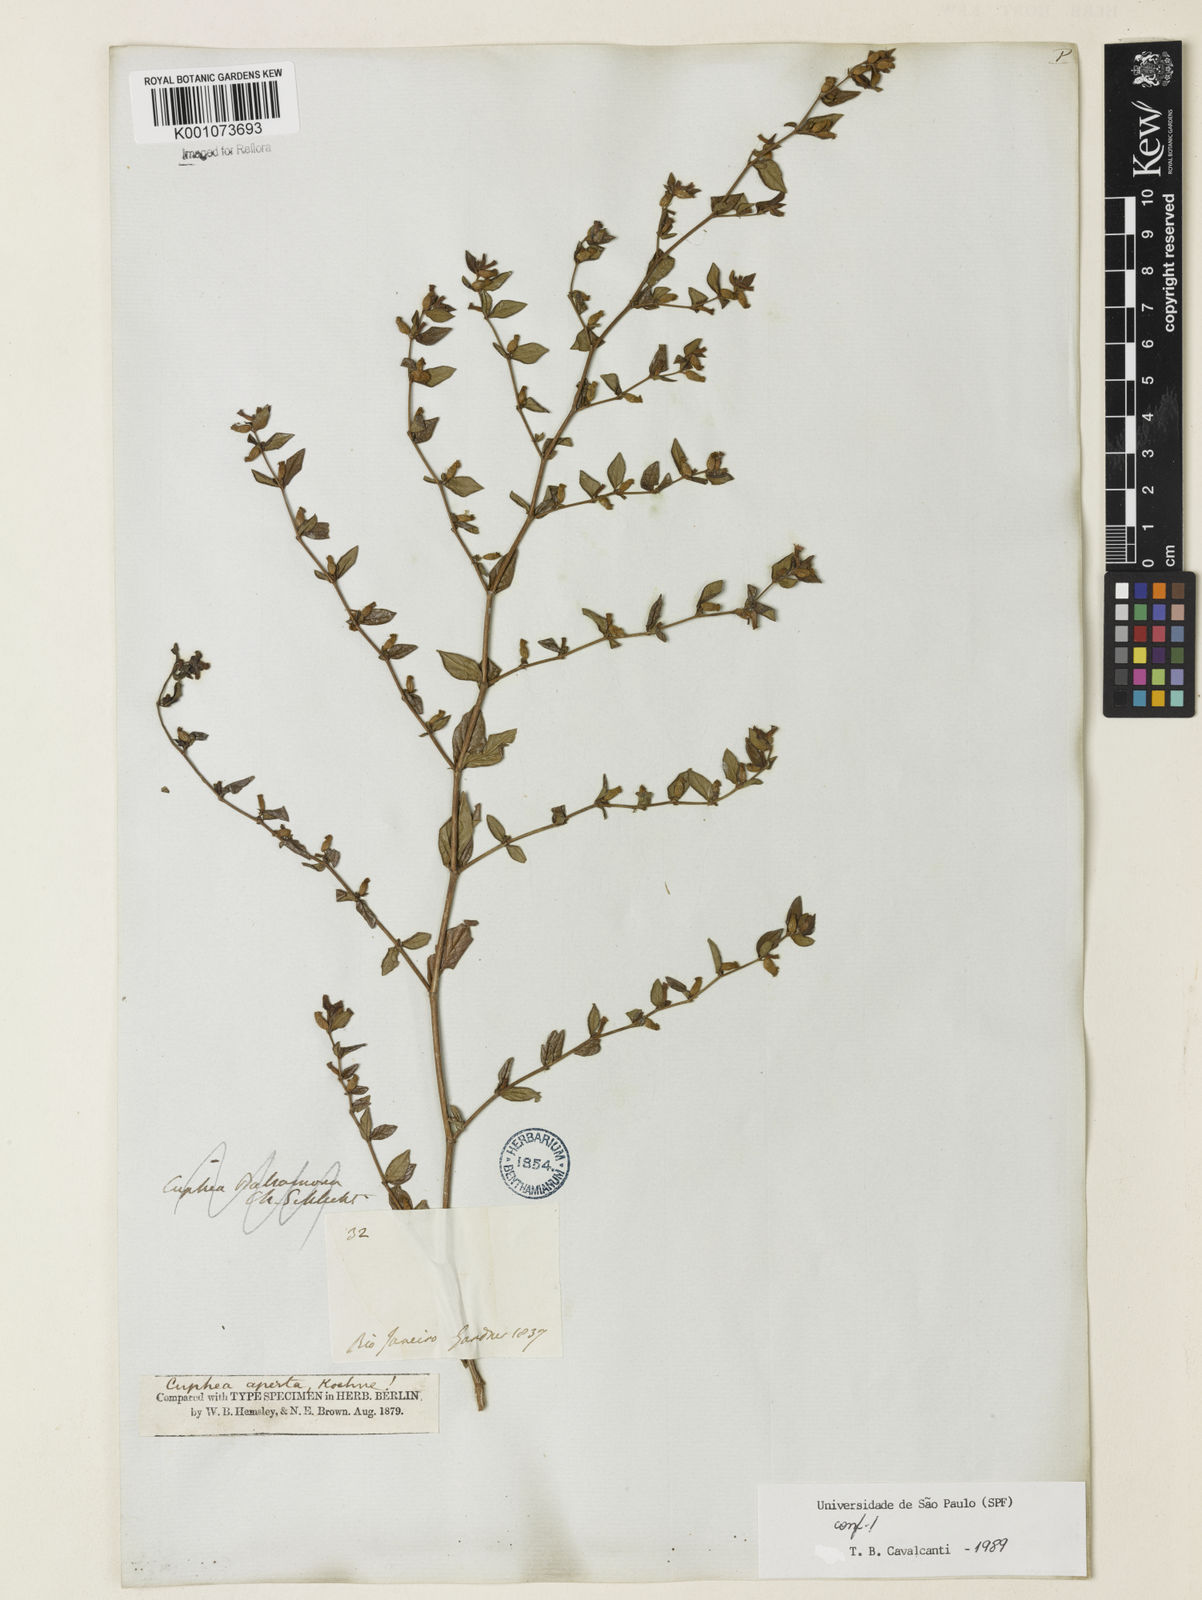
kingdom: Plantae
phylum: Tracheophyta
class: Magnoliopsida
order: Myrtales
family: Lythraceae
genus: Cuphea
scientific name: Cuphea aperta
